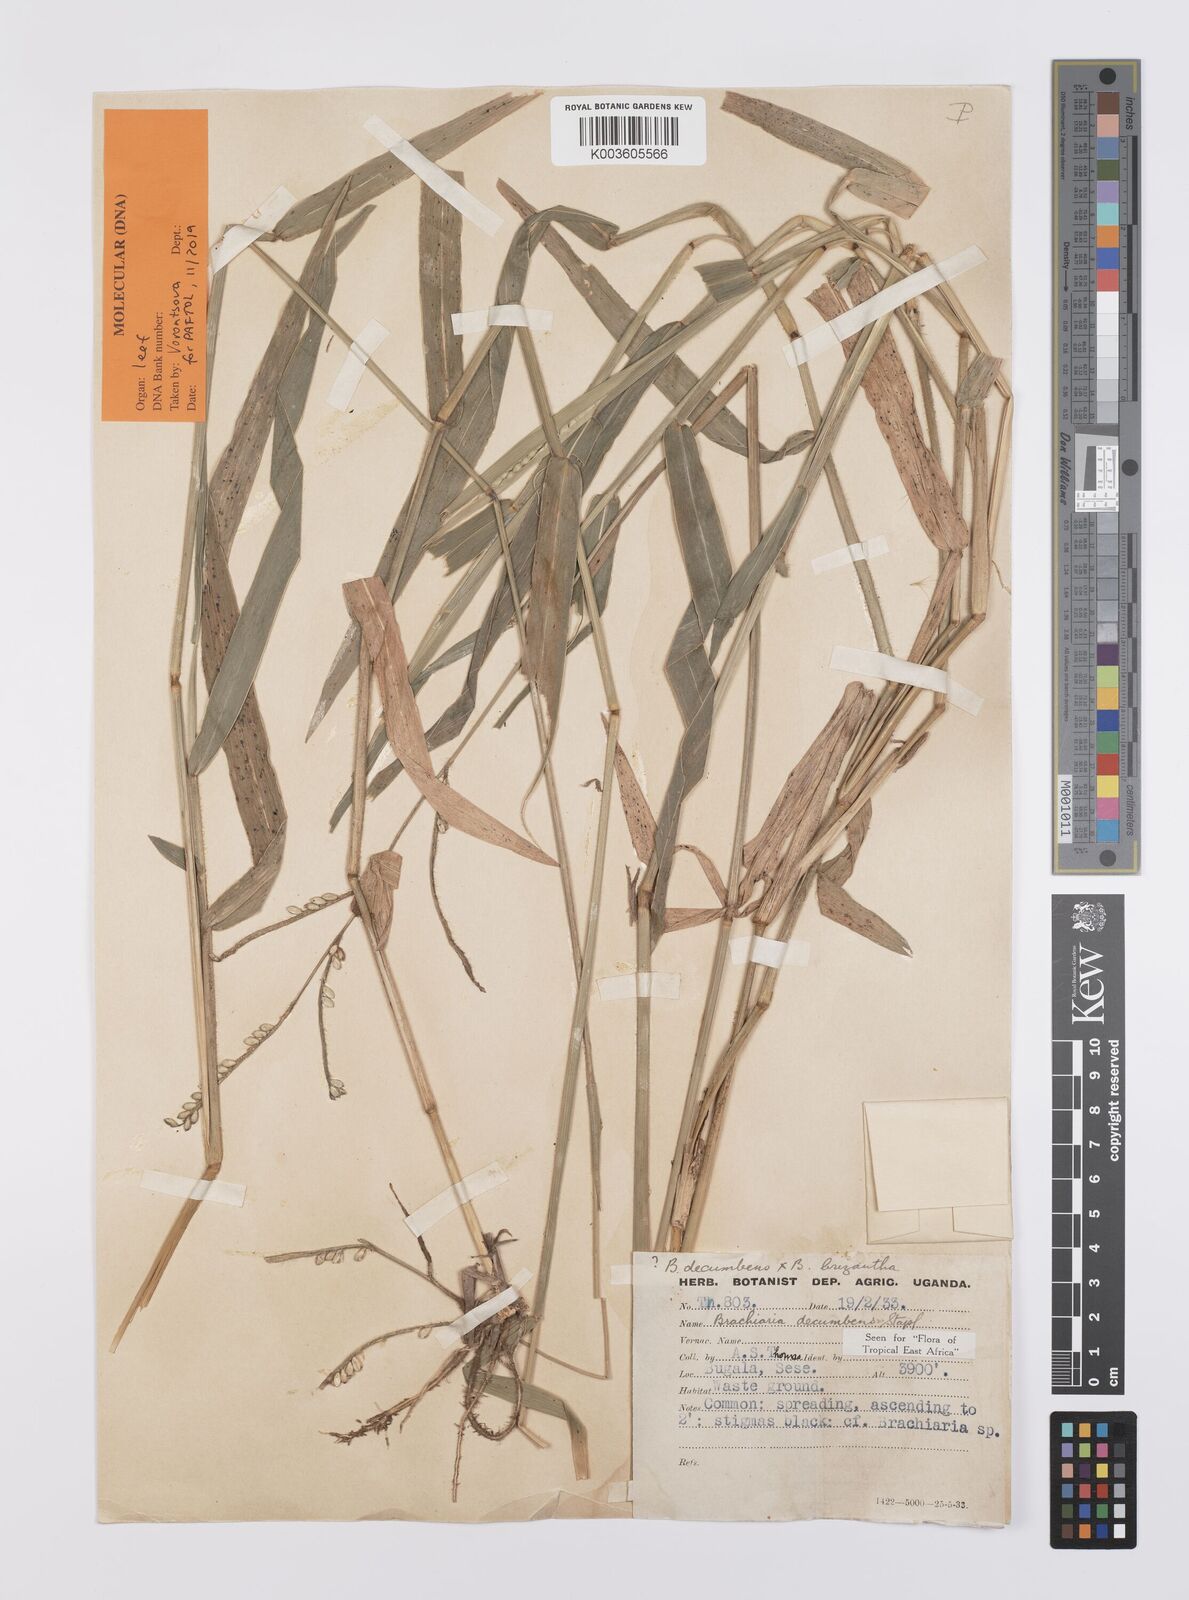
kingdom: Plantae
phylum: Tracheophyta
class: Liliopsida
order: Poales
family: Poaceae
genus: Urochloa
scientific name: Urochloa eminii
